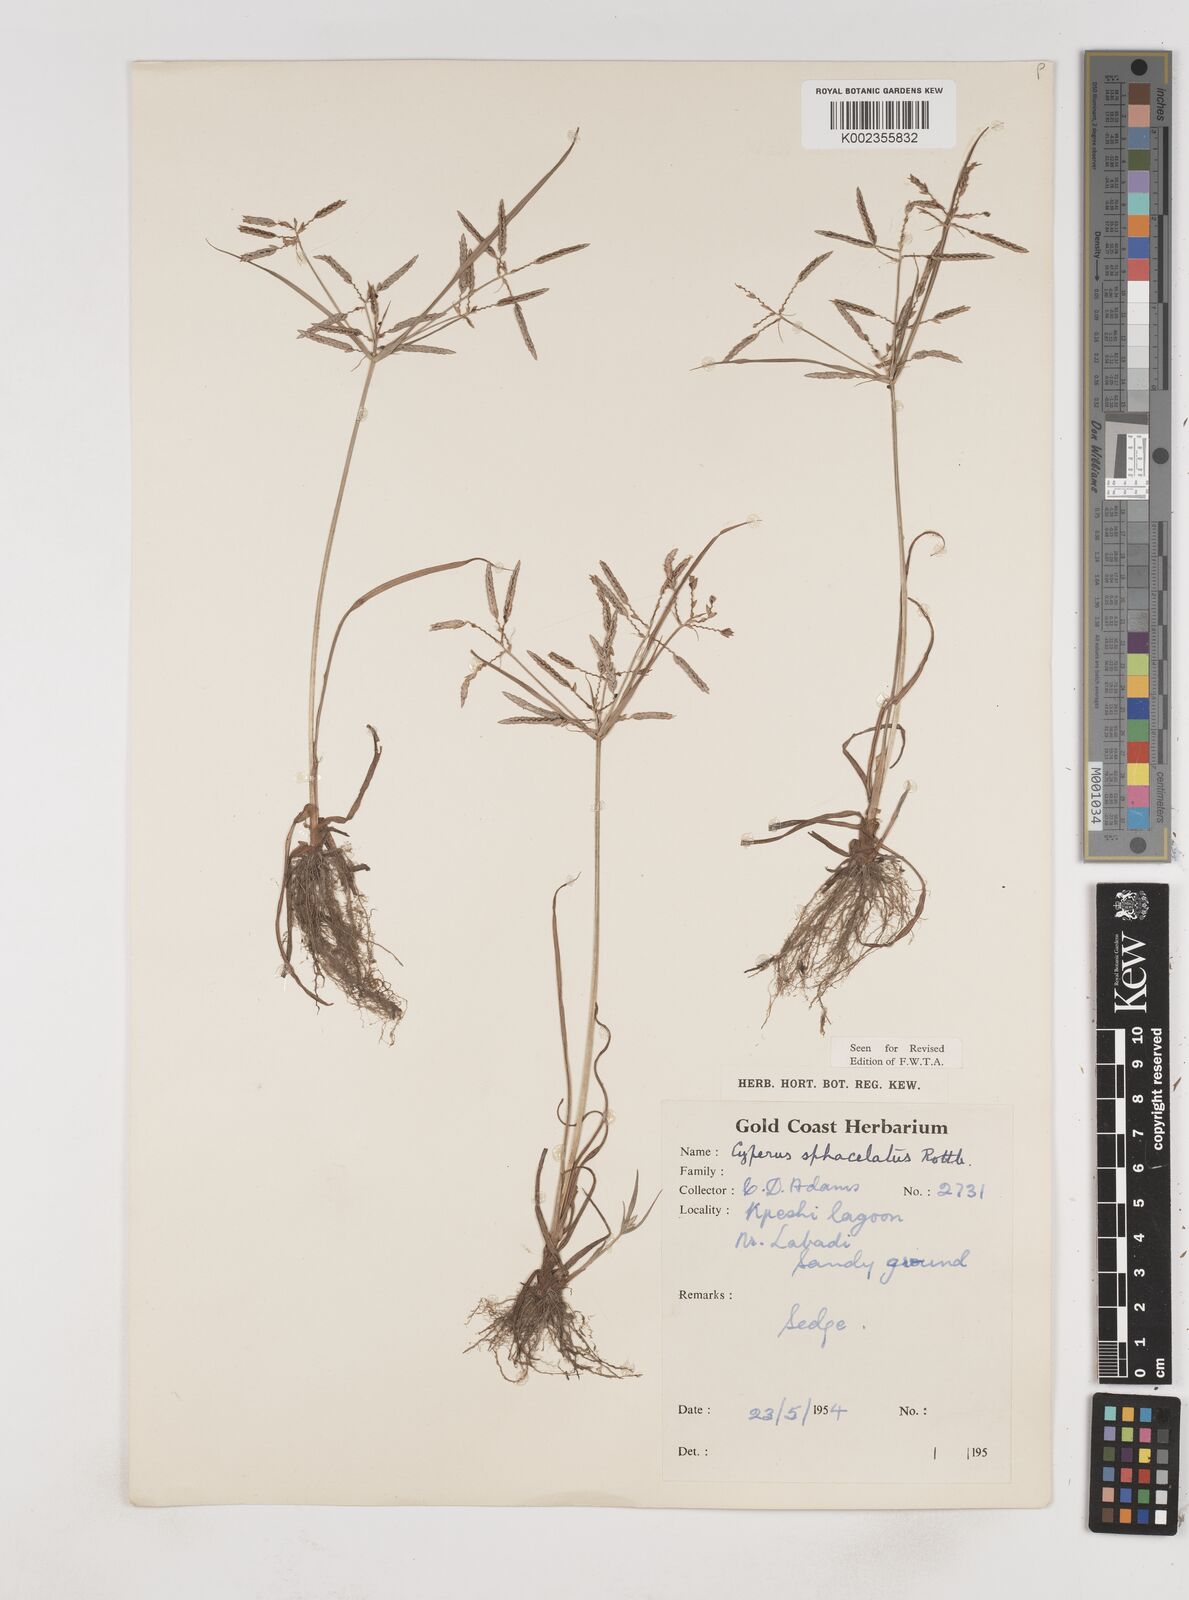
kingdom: Plantae
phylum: Tracheophyta
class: Liliopsida
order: Poales
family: Cyperaceae
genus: Cyperus
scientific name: Cyperus sphacelatus
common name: Roadside flatsedge
